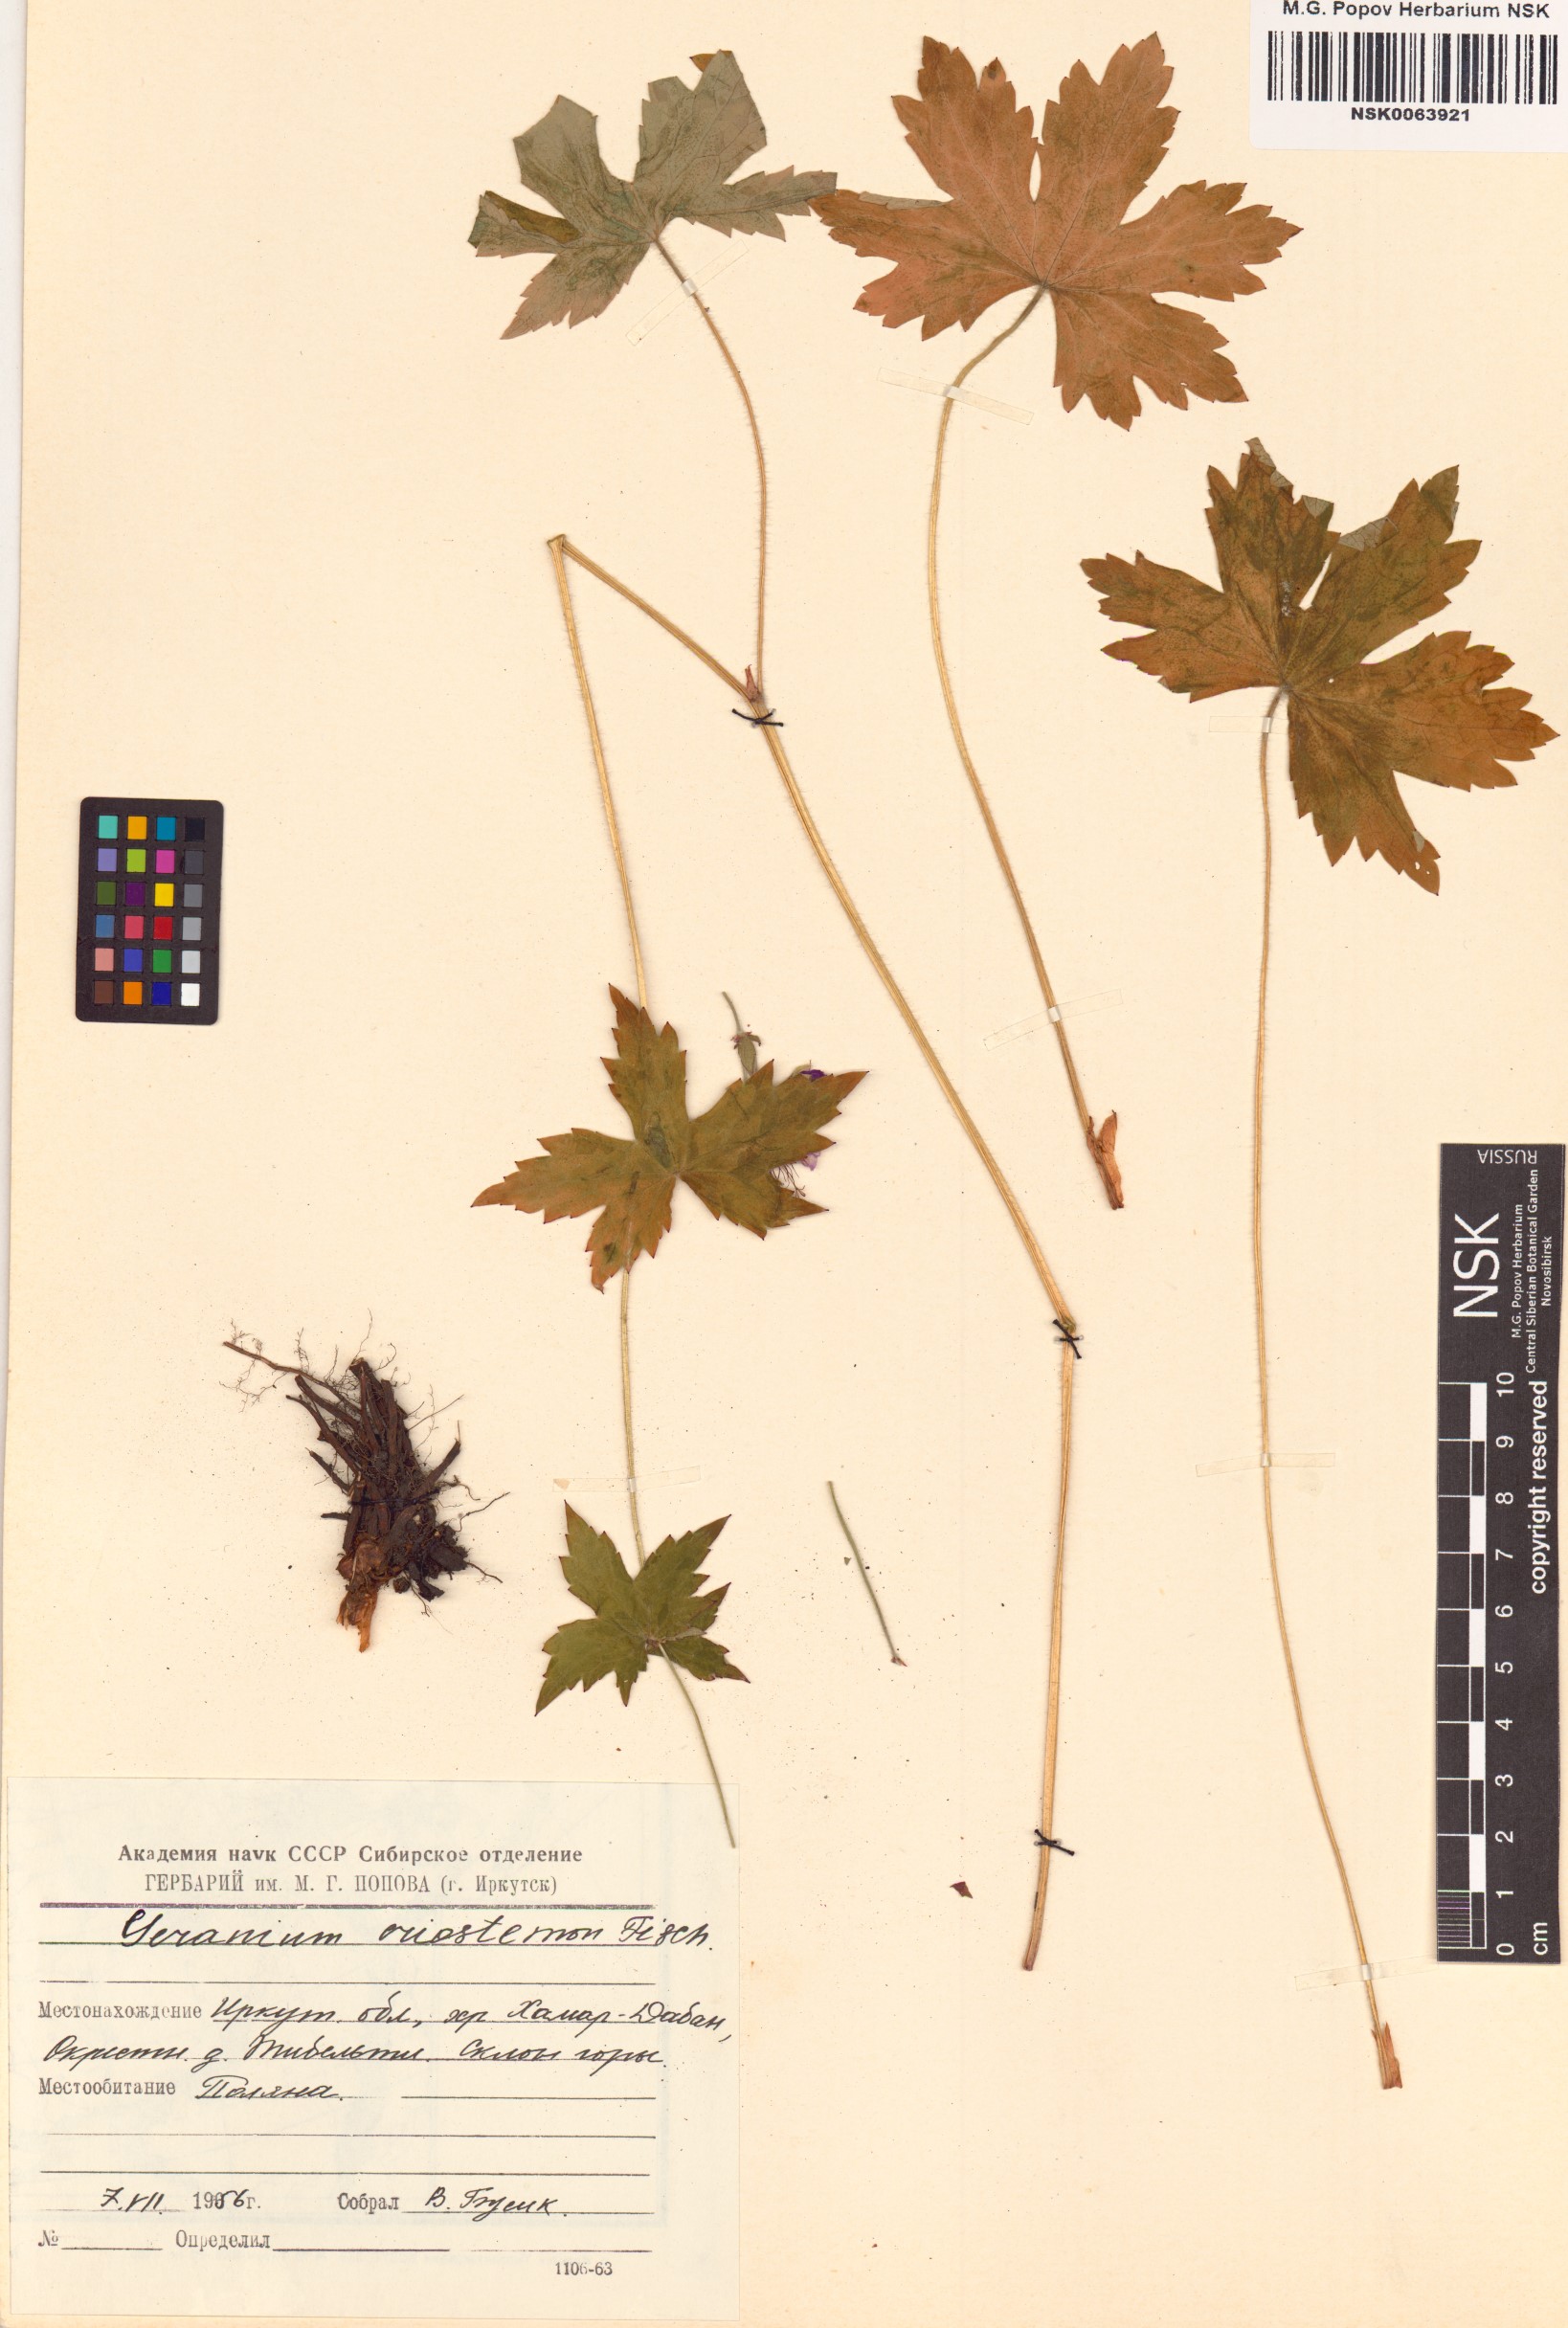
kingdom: Plantae
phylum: Tracheophyta
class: Magnoliopsida
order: Geraniales
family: Geraniaceae
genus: Geranium
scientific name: Geranium platyanthum
